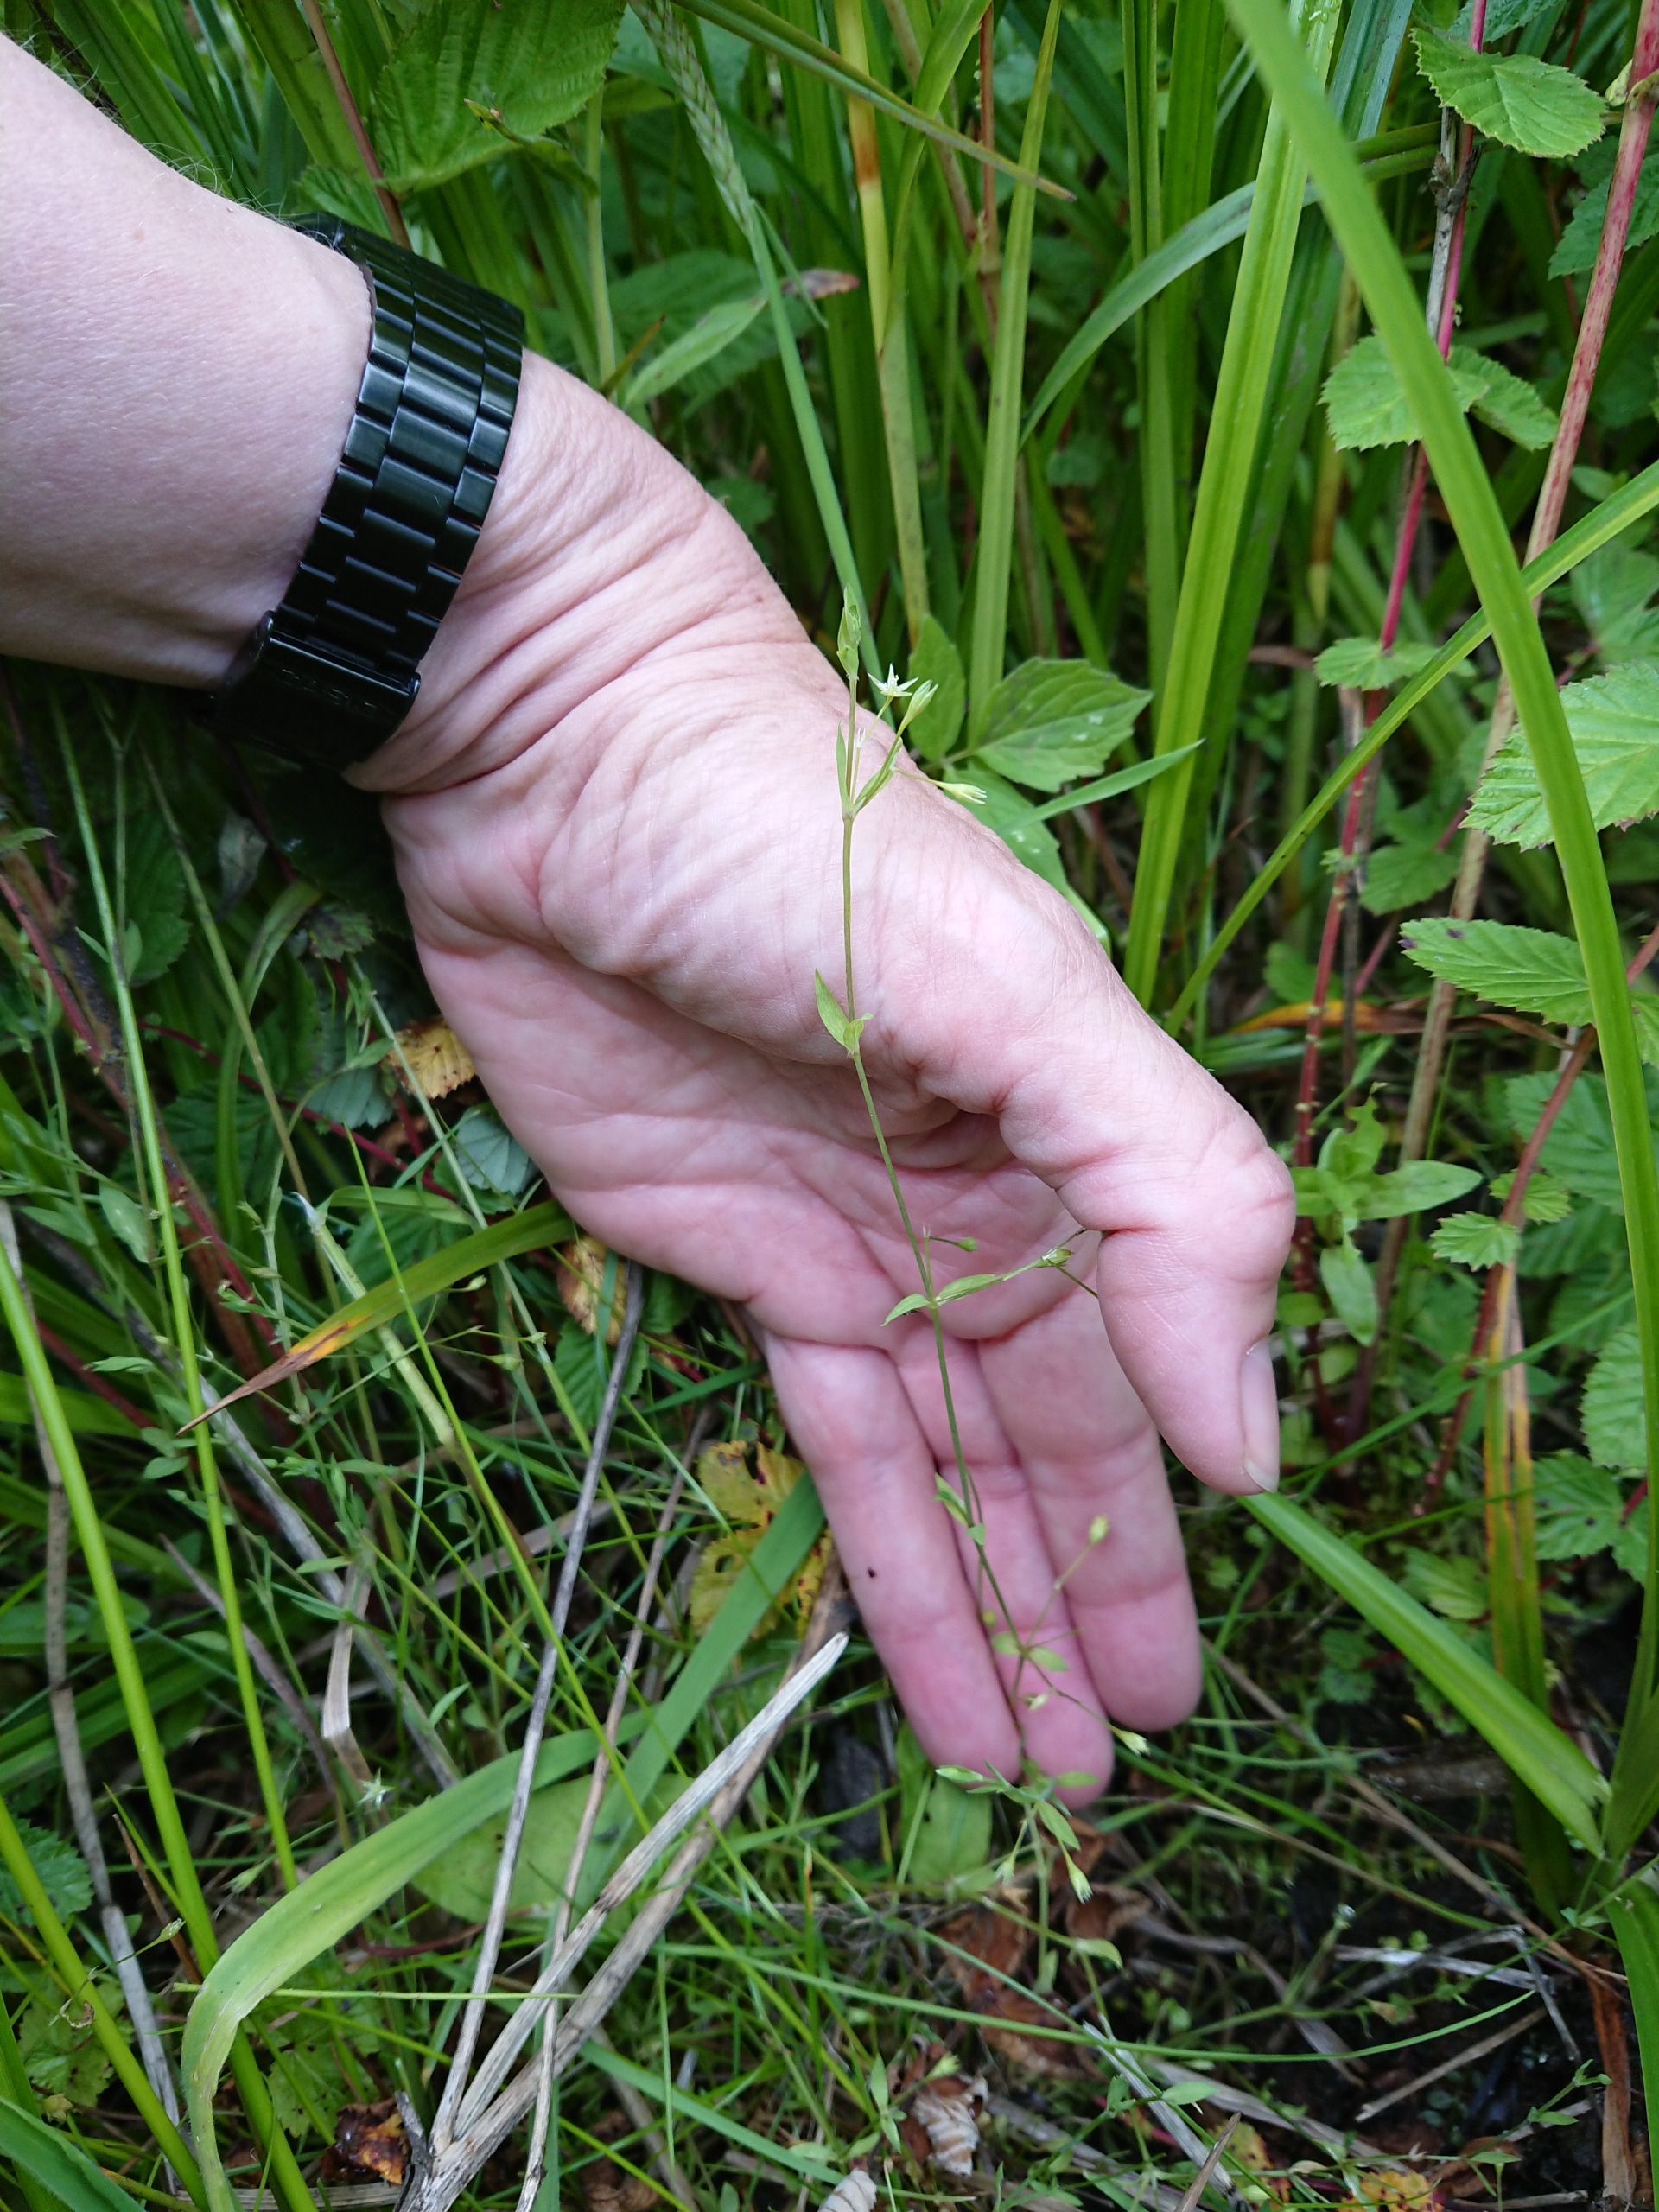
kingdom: Plantae
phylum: Tracheophyta
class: Magnoliopsida
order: Caryophyllales
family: Caryophyllaceae
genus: Stellaria
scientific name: Stellaria alsine
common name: Sump-fladstjerne
